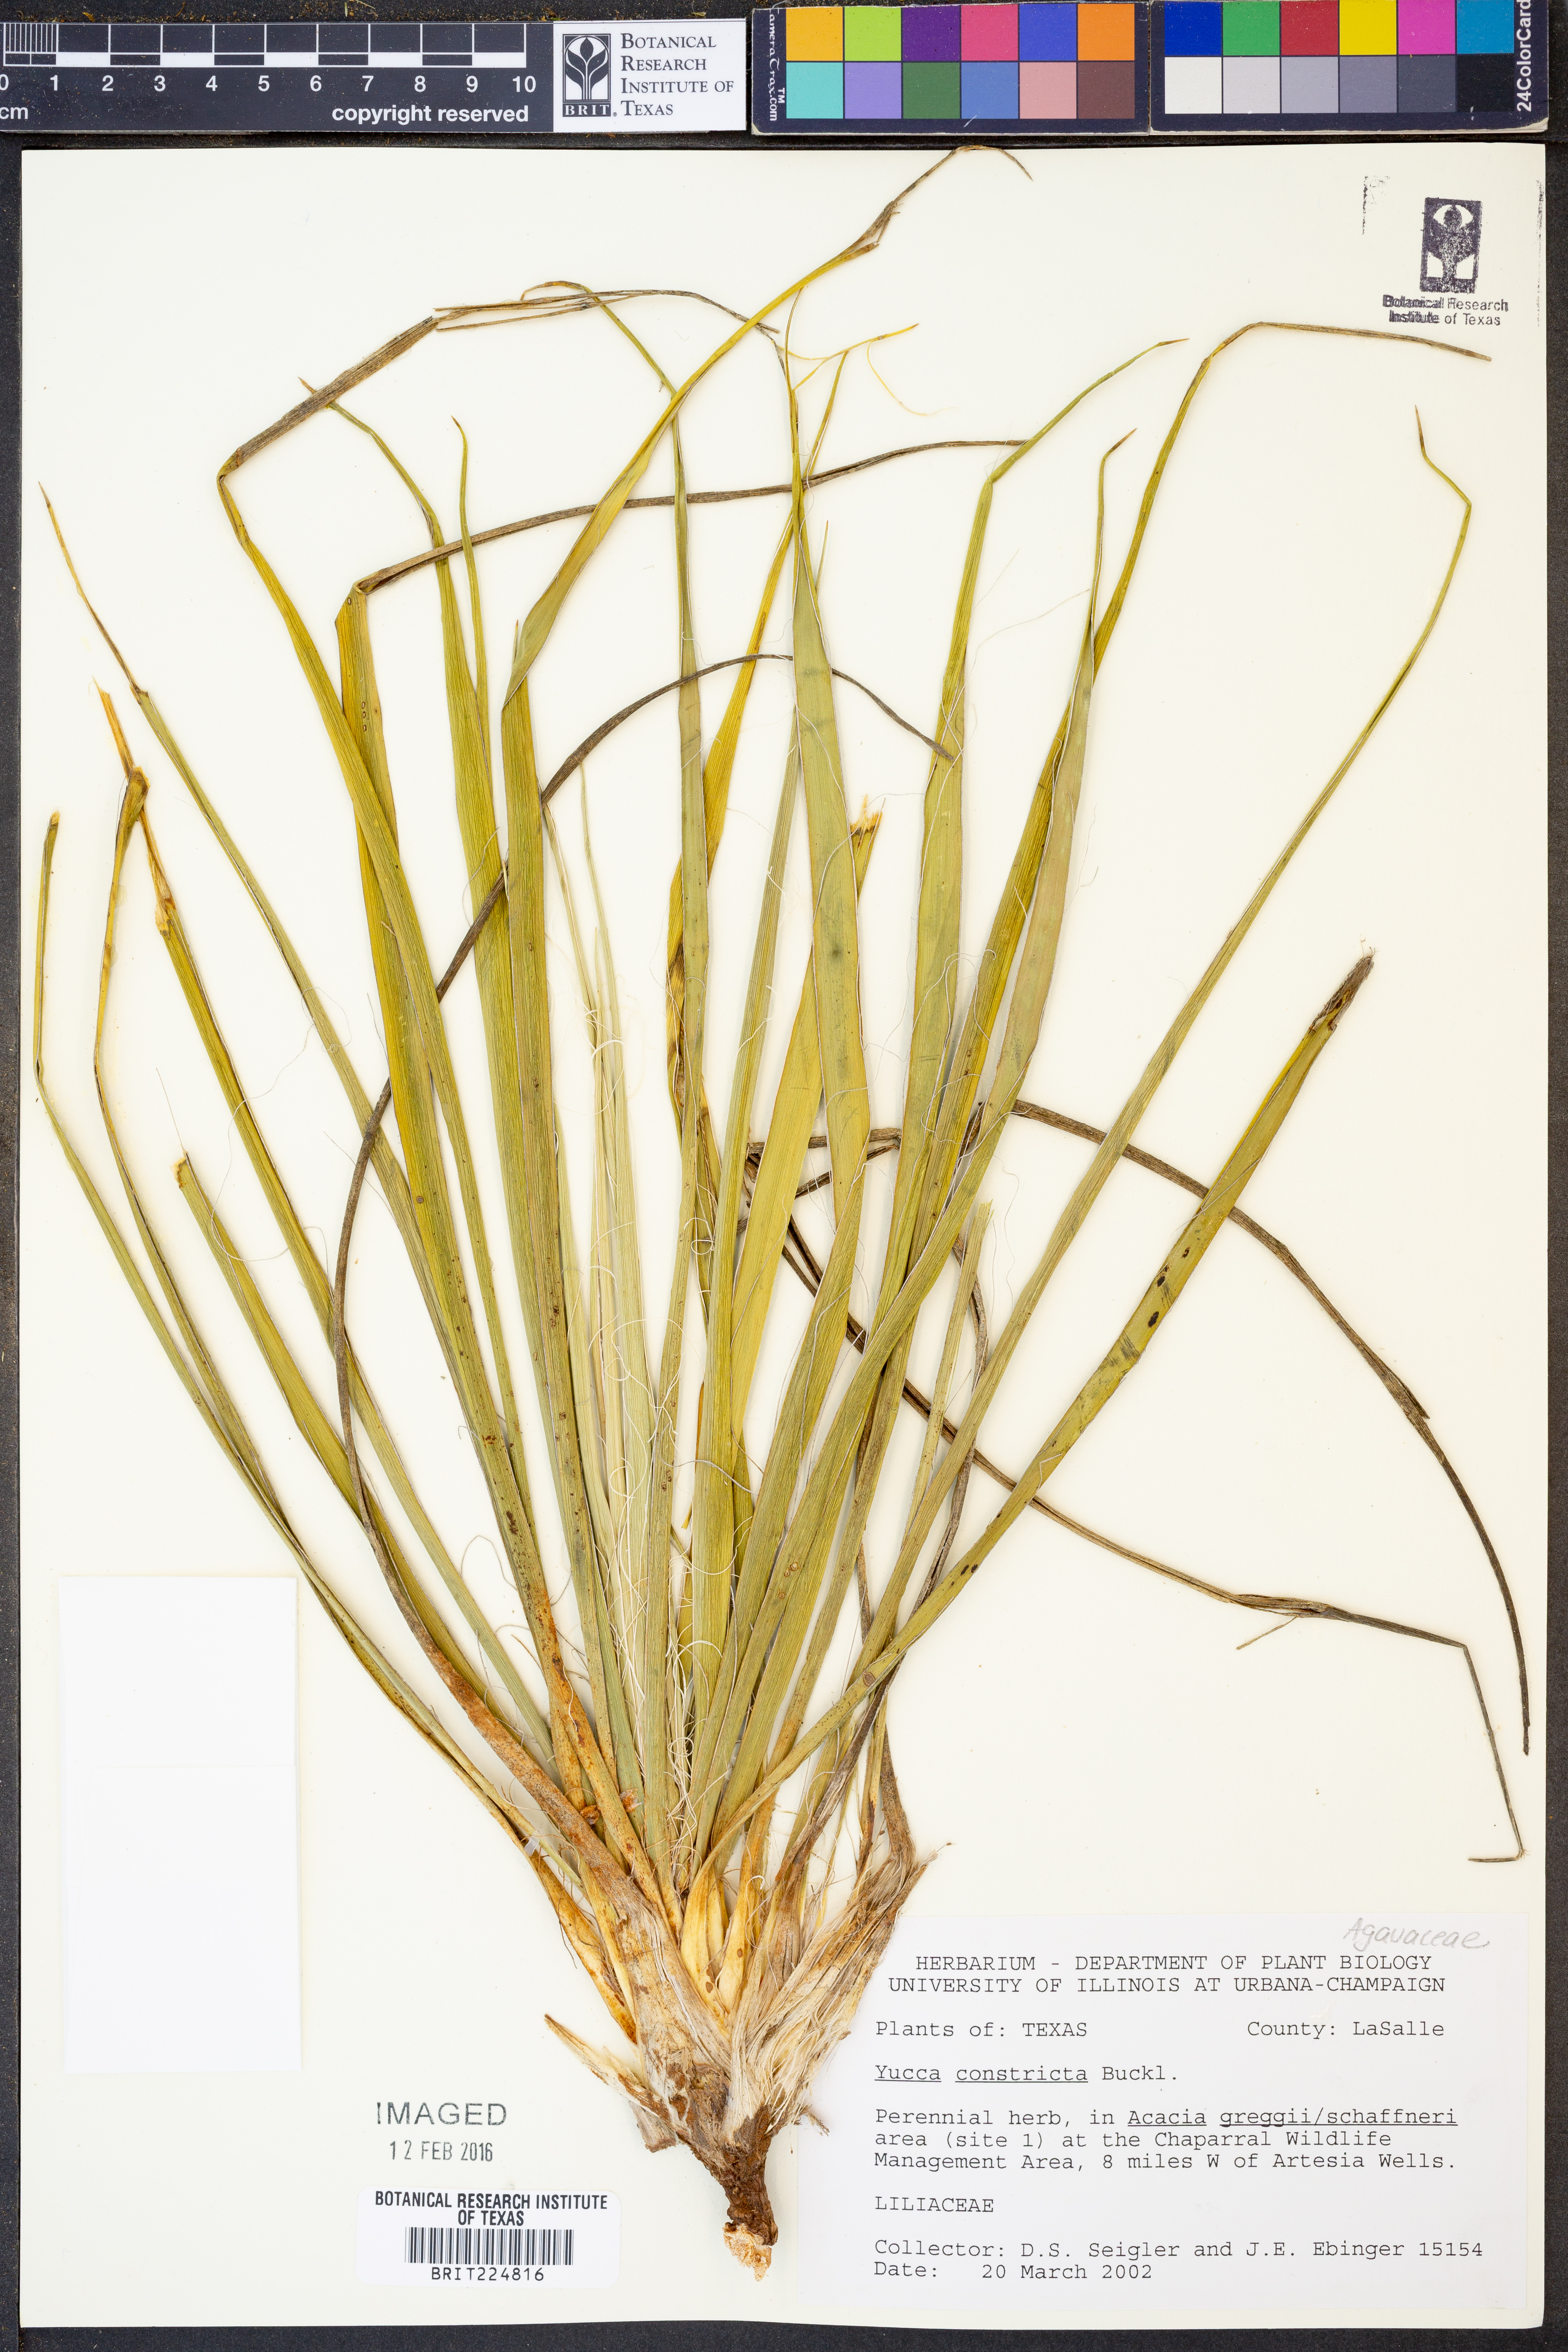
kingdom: Plantae
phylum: Tracheophyta
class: Liliopsida
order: Asparagales
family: Asparagaceae
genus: Yucca
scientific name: Yucca constricta
